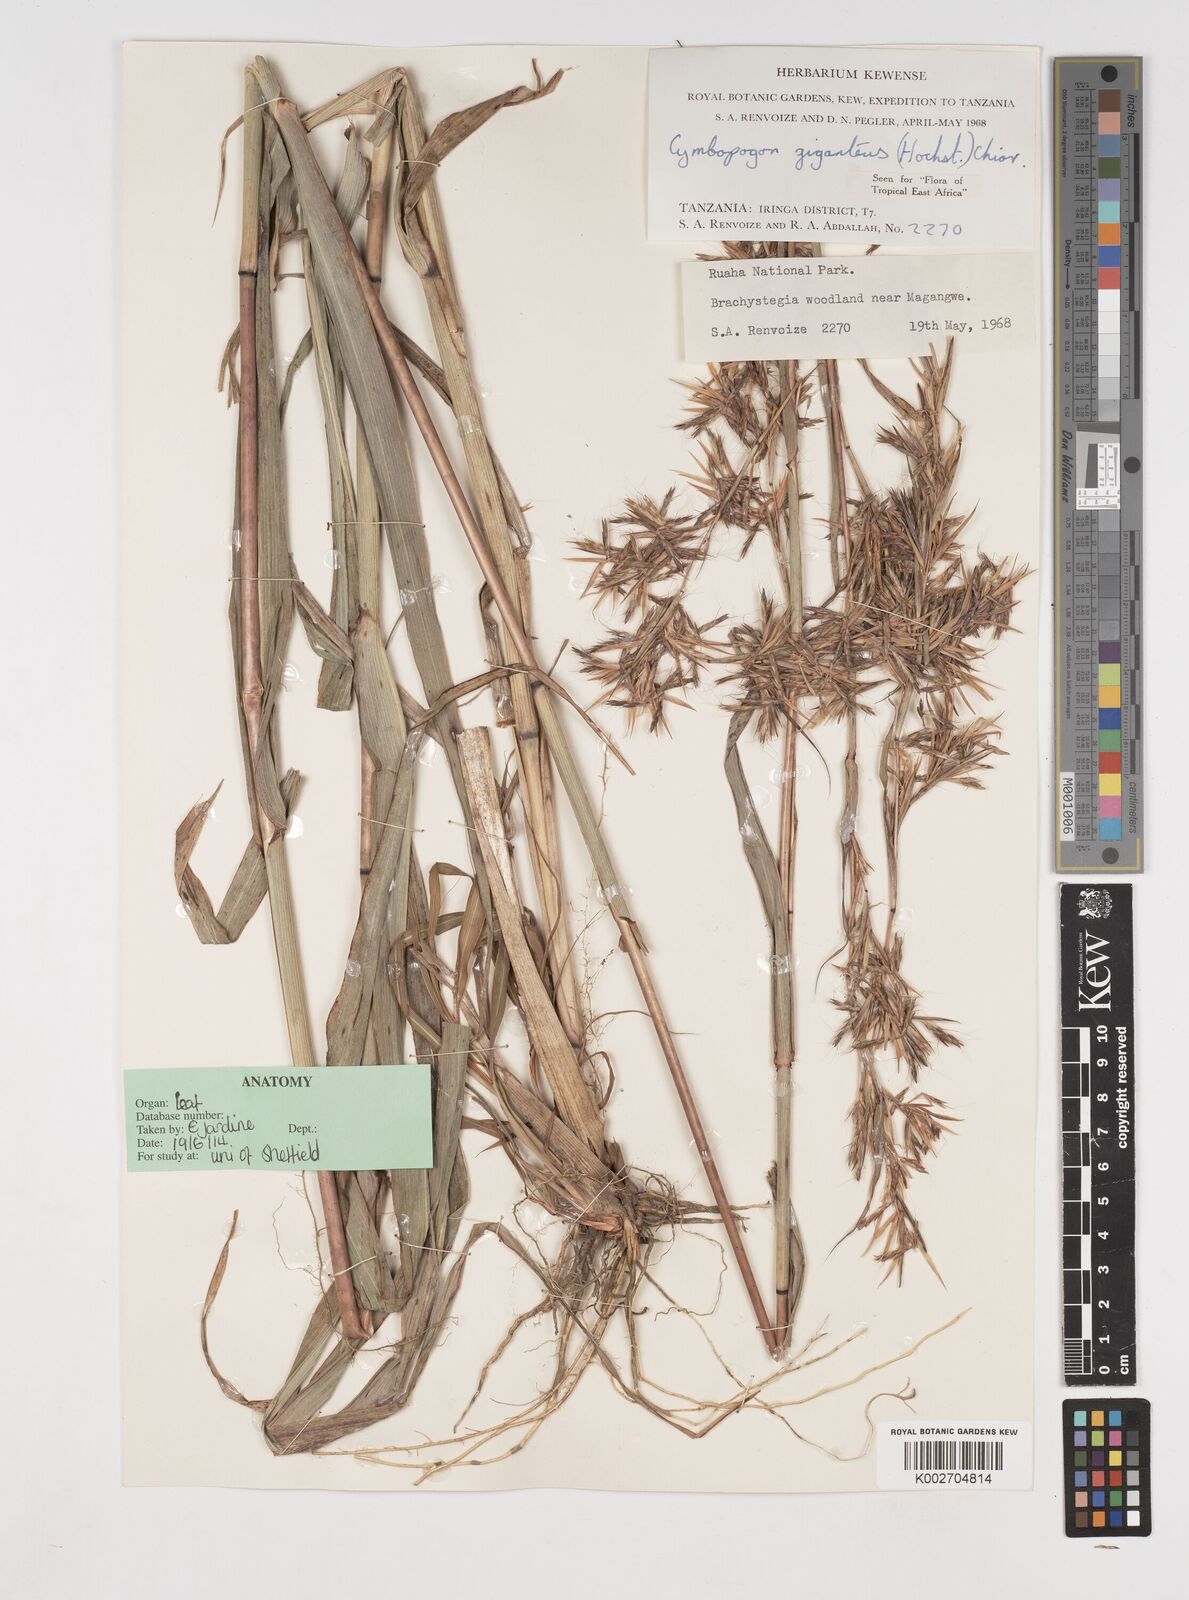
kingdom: Plantae
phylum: Tracheophyta
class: Liliopsida
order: Poales
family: Poaceae
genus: Cymbopogon
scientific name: Cymbopogon giganteus
